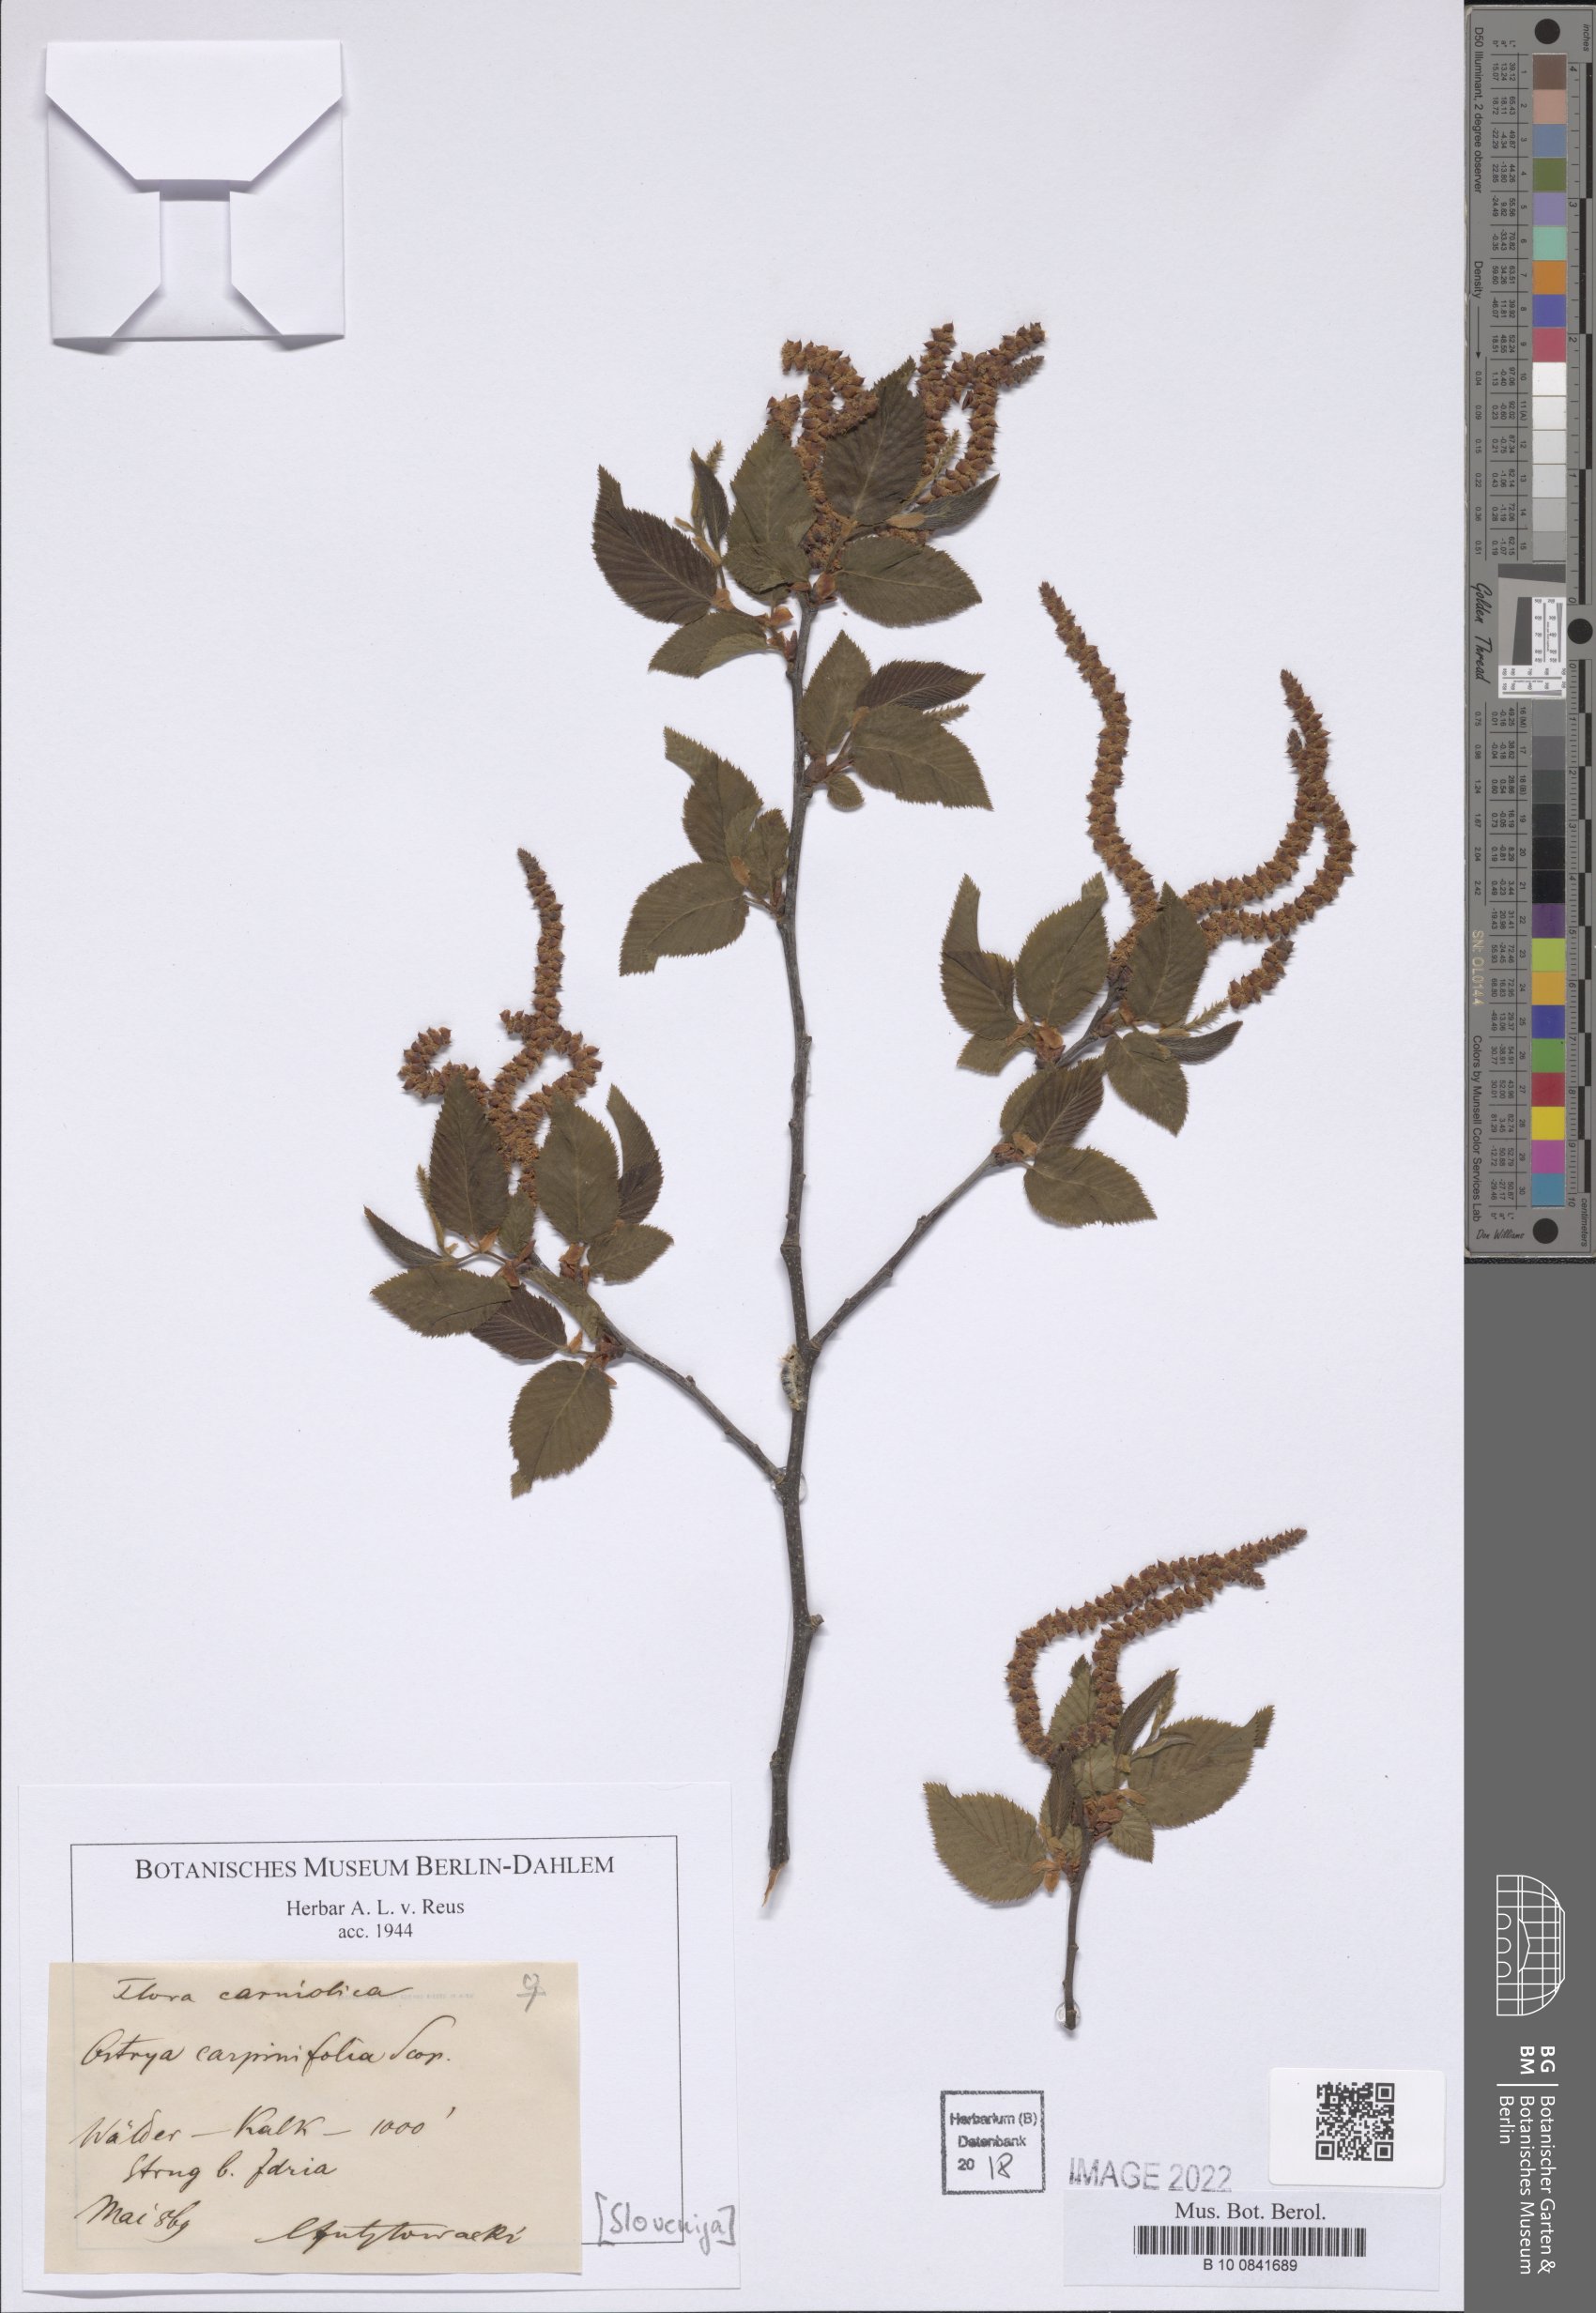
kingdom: Plantae
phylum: Tracheophyta
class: Magnoliopsida
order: Fagales
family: Betulaceae
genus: Ostrya
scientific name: Ostrya carpinifolia
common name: European hop-hornbeam
